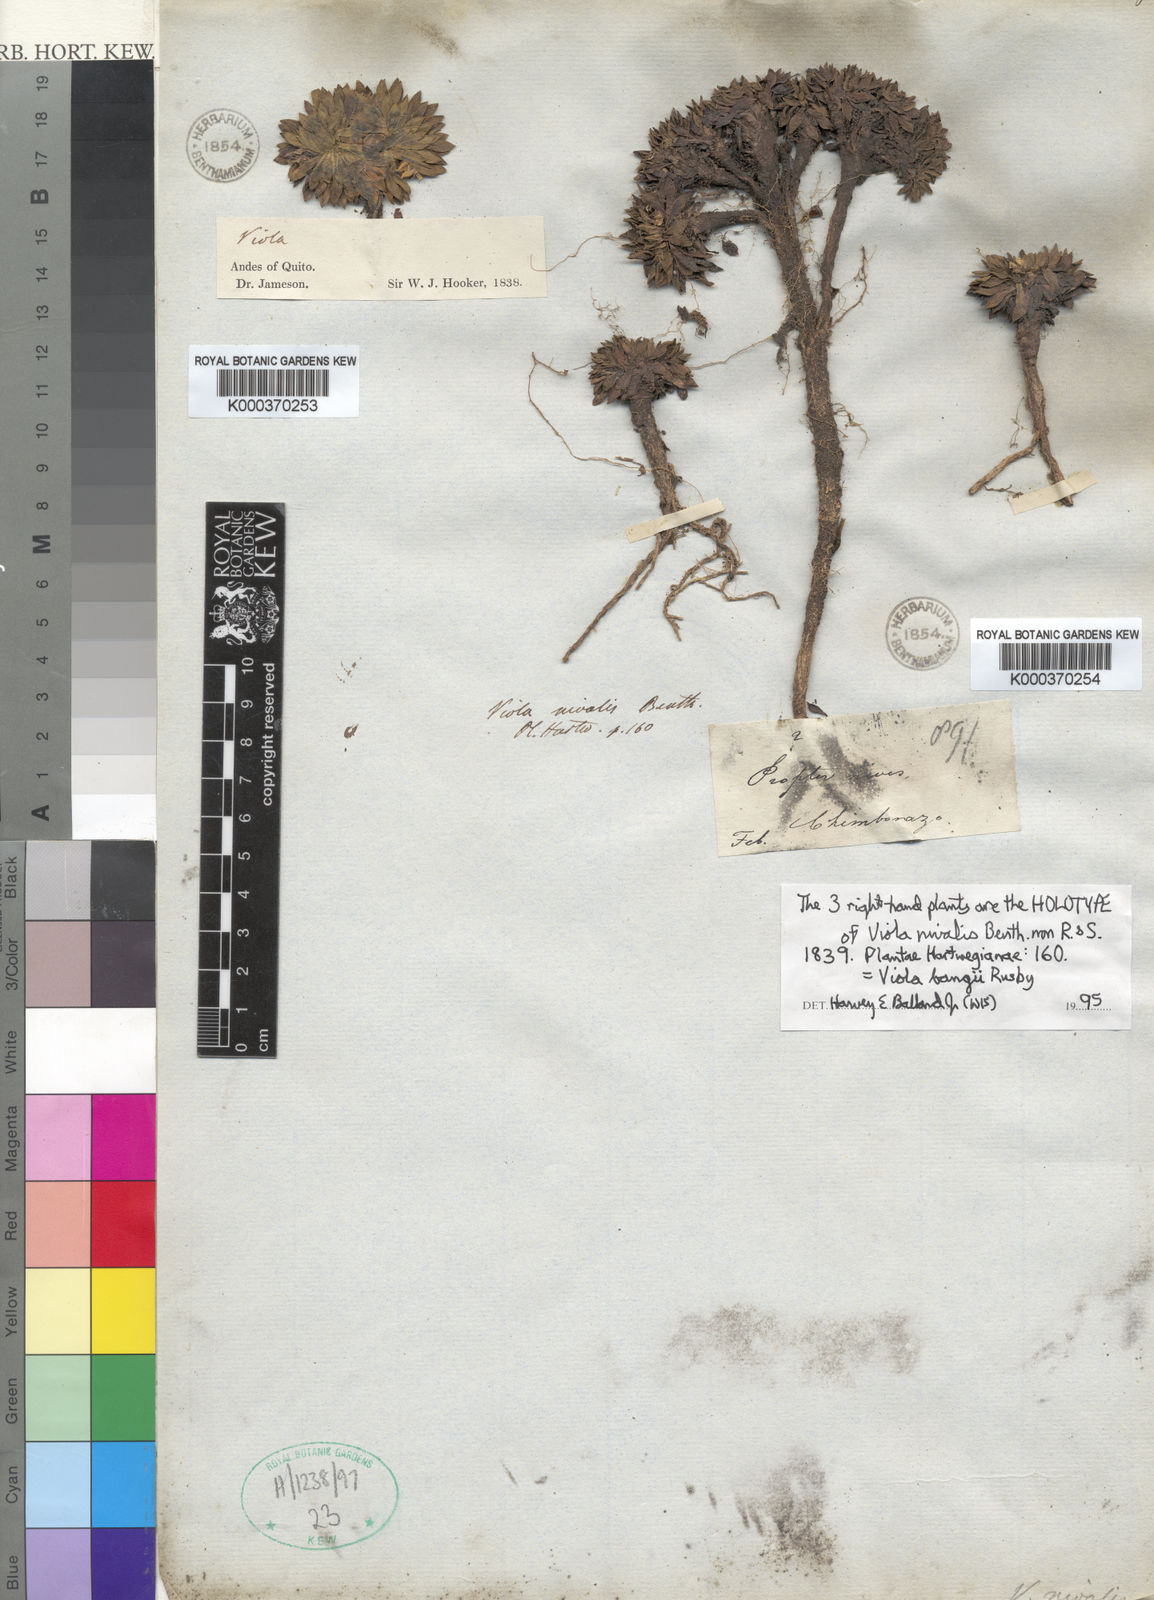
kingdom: Plantae
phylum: Tracheophyta
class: Magnoliopsida
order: Malpighiales
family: Violaceae
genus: Viola
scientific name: Viola bangii
